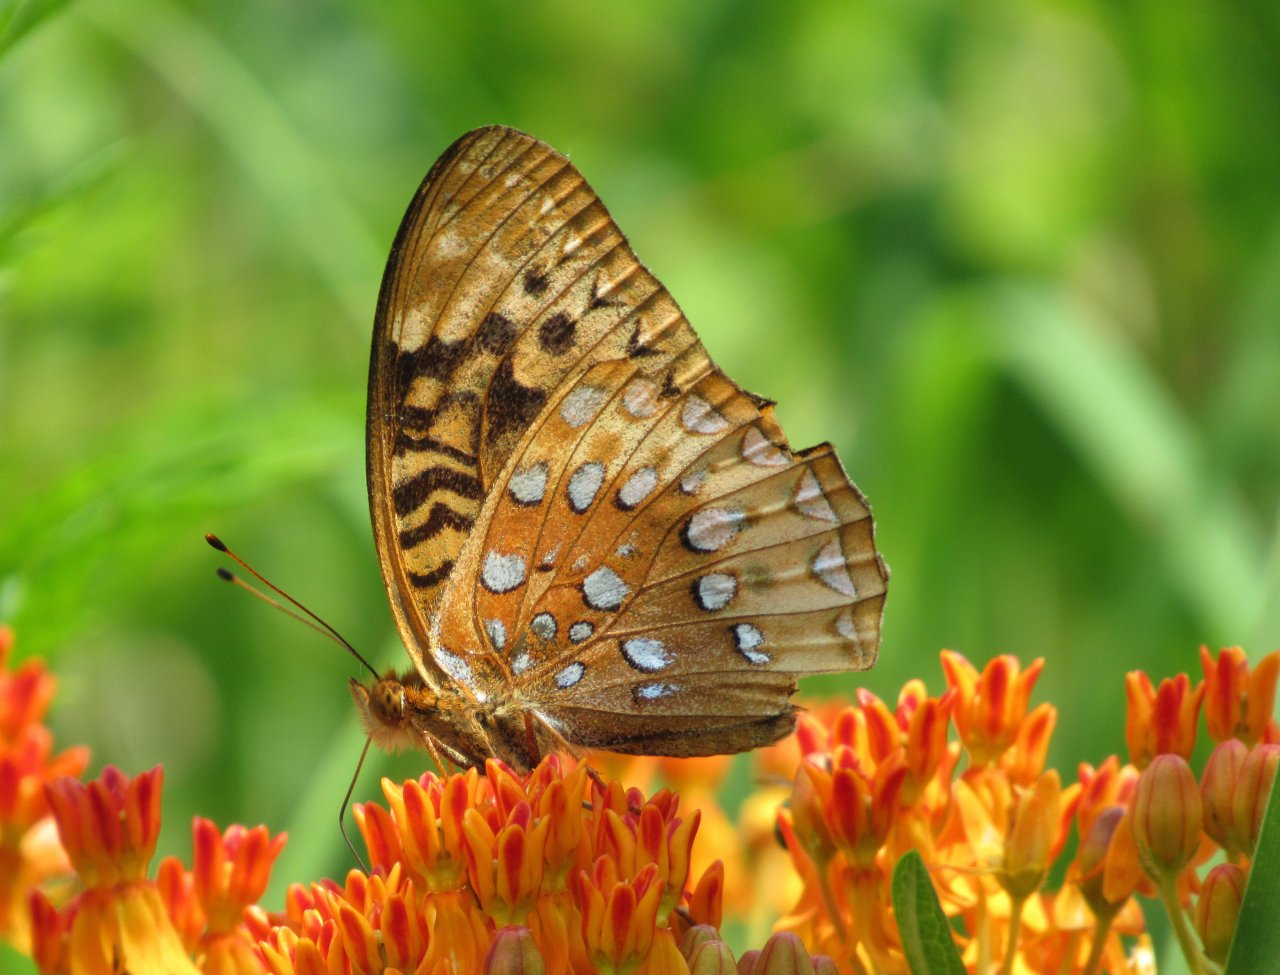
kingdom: Animalia
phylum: Arthropoda
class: Insecta
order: Lepidoptera
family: Nymphalidae
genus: Speyeria
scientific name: Speyeria cybele
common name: Great Spangled Fritillary
